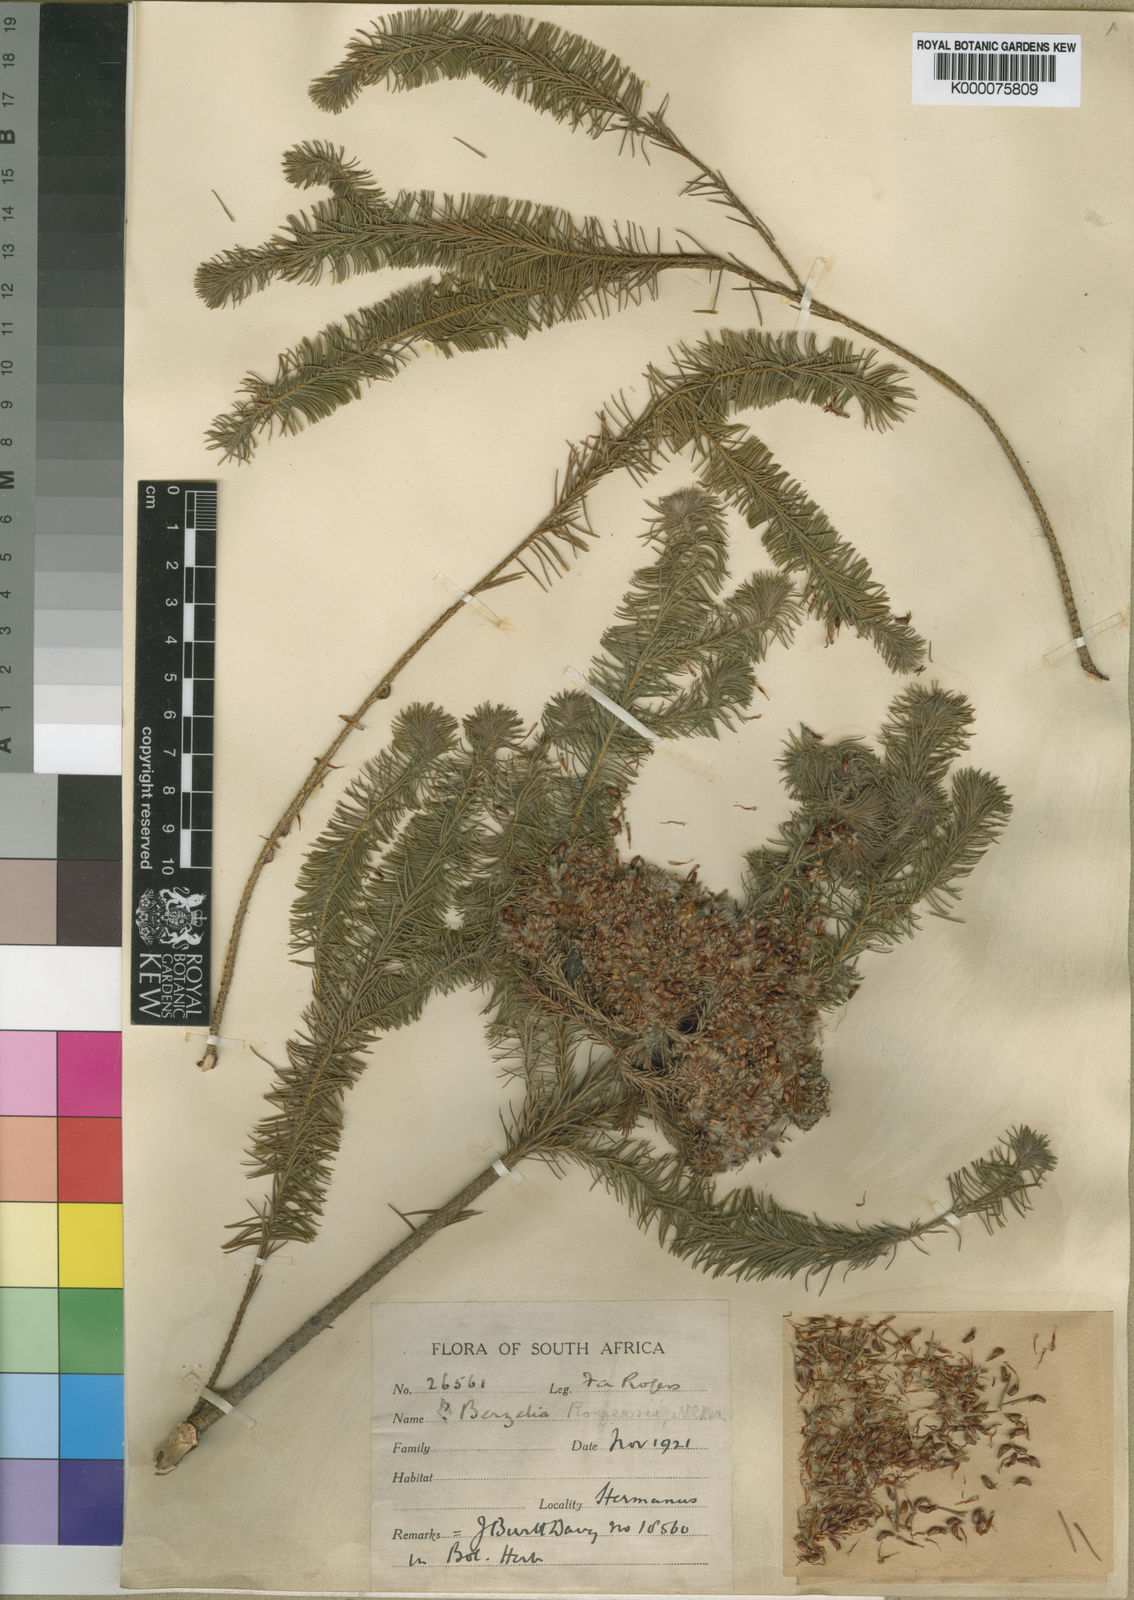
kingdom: Plantae
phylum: Tracheophyta
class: Magnoliopsida
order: Bruniales
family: Bruniaceae
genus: Brunia
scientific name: Brunia
